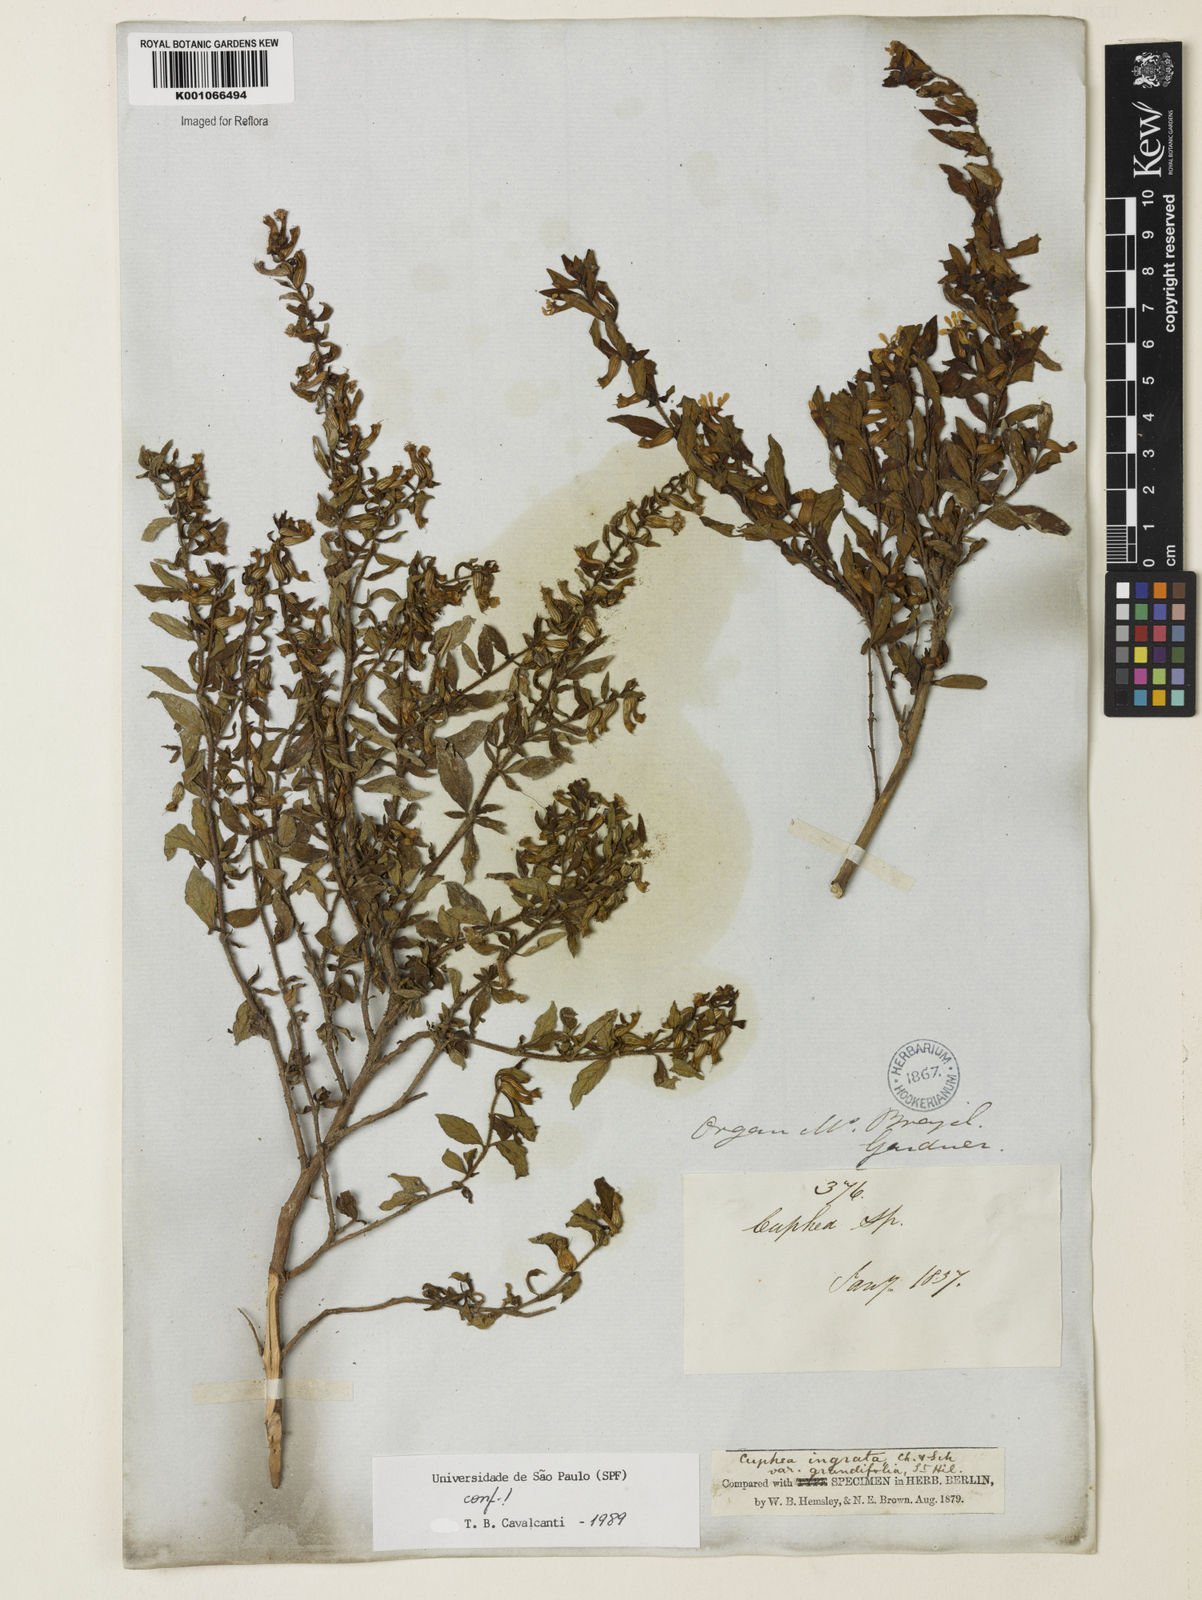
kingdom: Plantae
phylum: Tracheophyta
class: Magnoliopsida
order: Myrtales
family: Lythraceae
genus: Cuphea
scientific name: Cuphea ingrata
